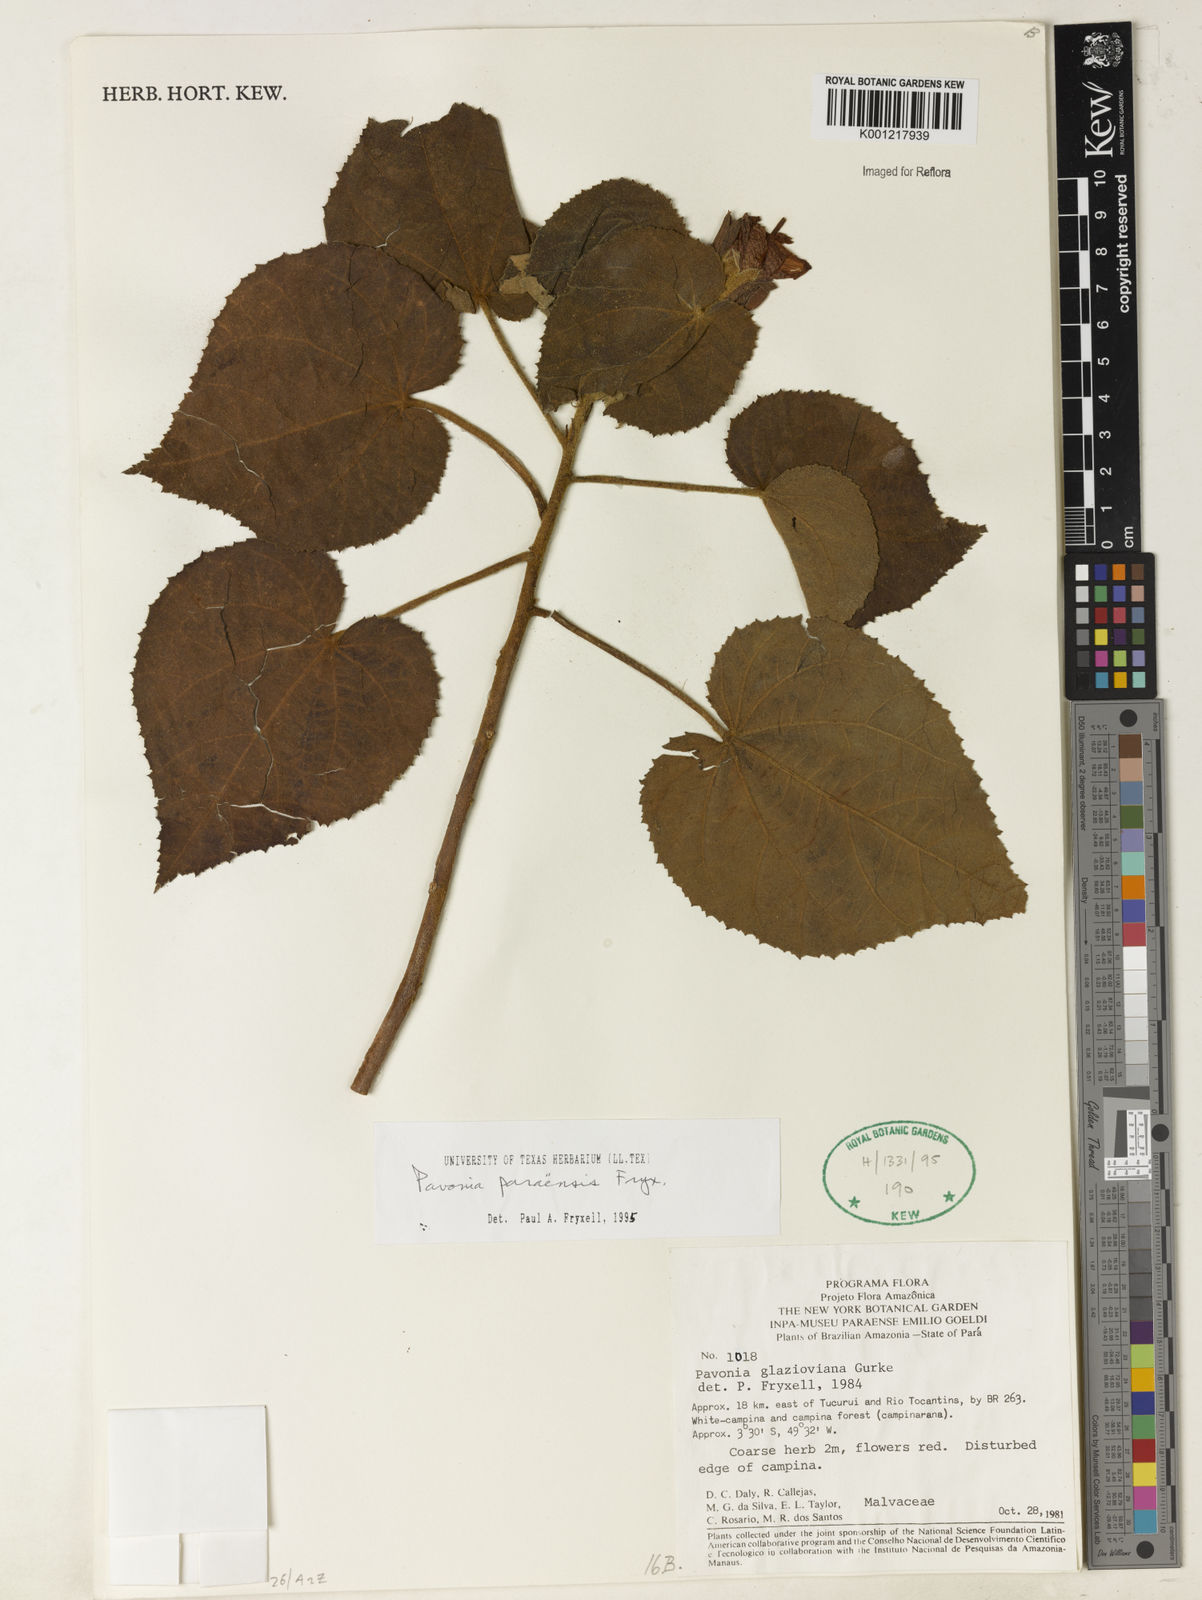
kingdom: Plantae
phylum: Tracheophyta
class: Magnoliopsida
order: Malvales
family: Malvaceae
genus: Pavonia
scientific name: Pavonia paraensis
